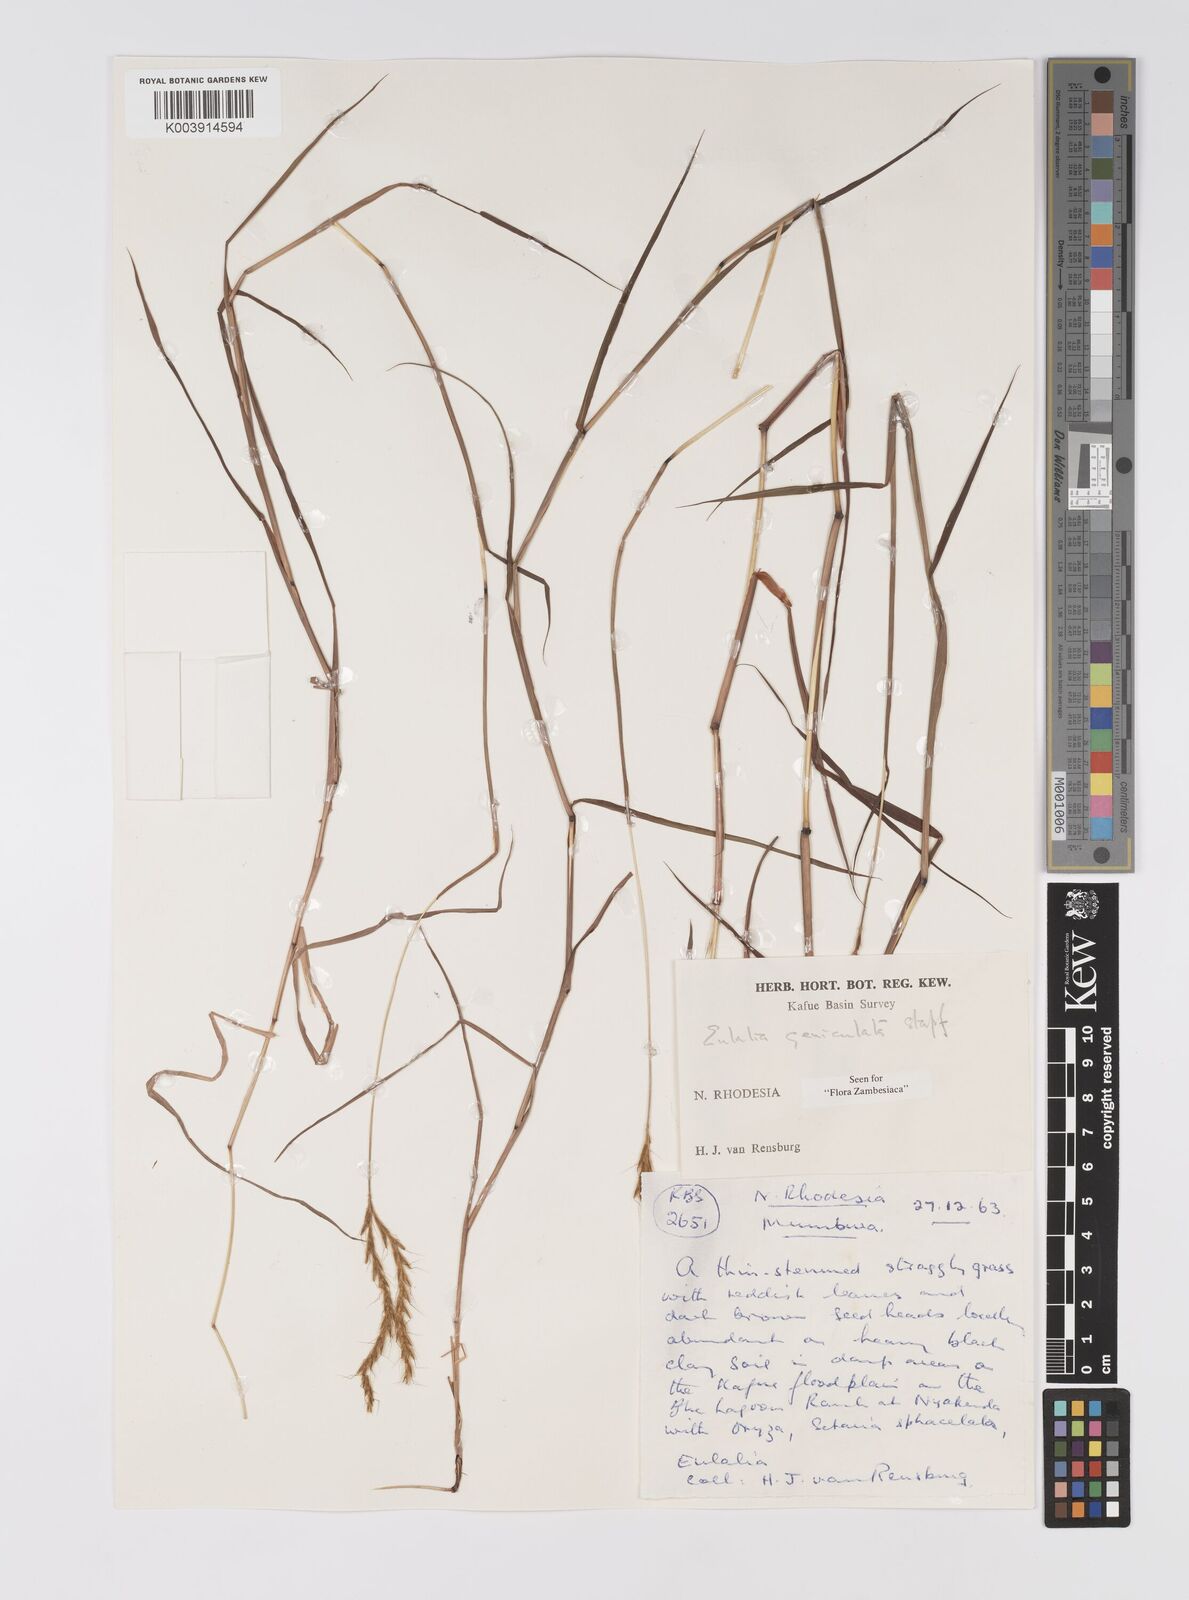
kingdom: Plantae
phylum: Tracheophyta
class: Liliopsida
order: Poales
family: Poaceae
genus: Eulalia
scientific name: Eulalia aurea
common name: Silky browntop
